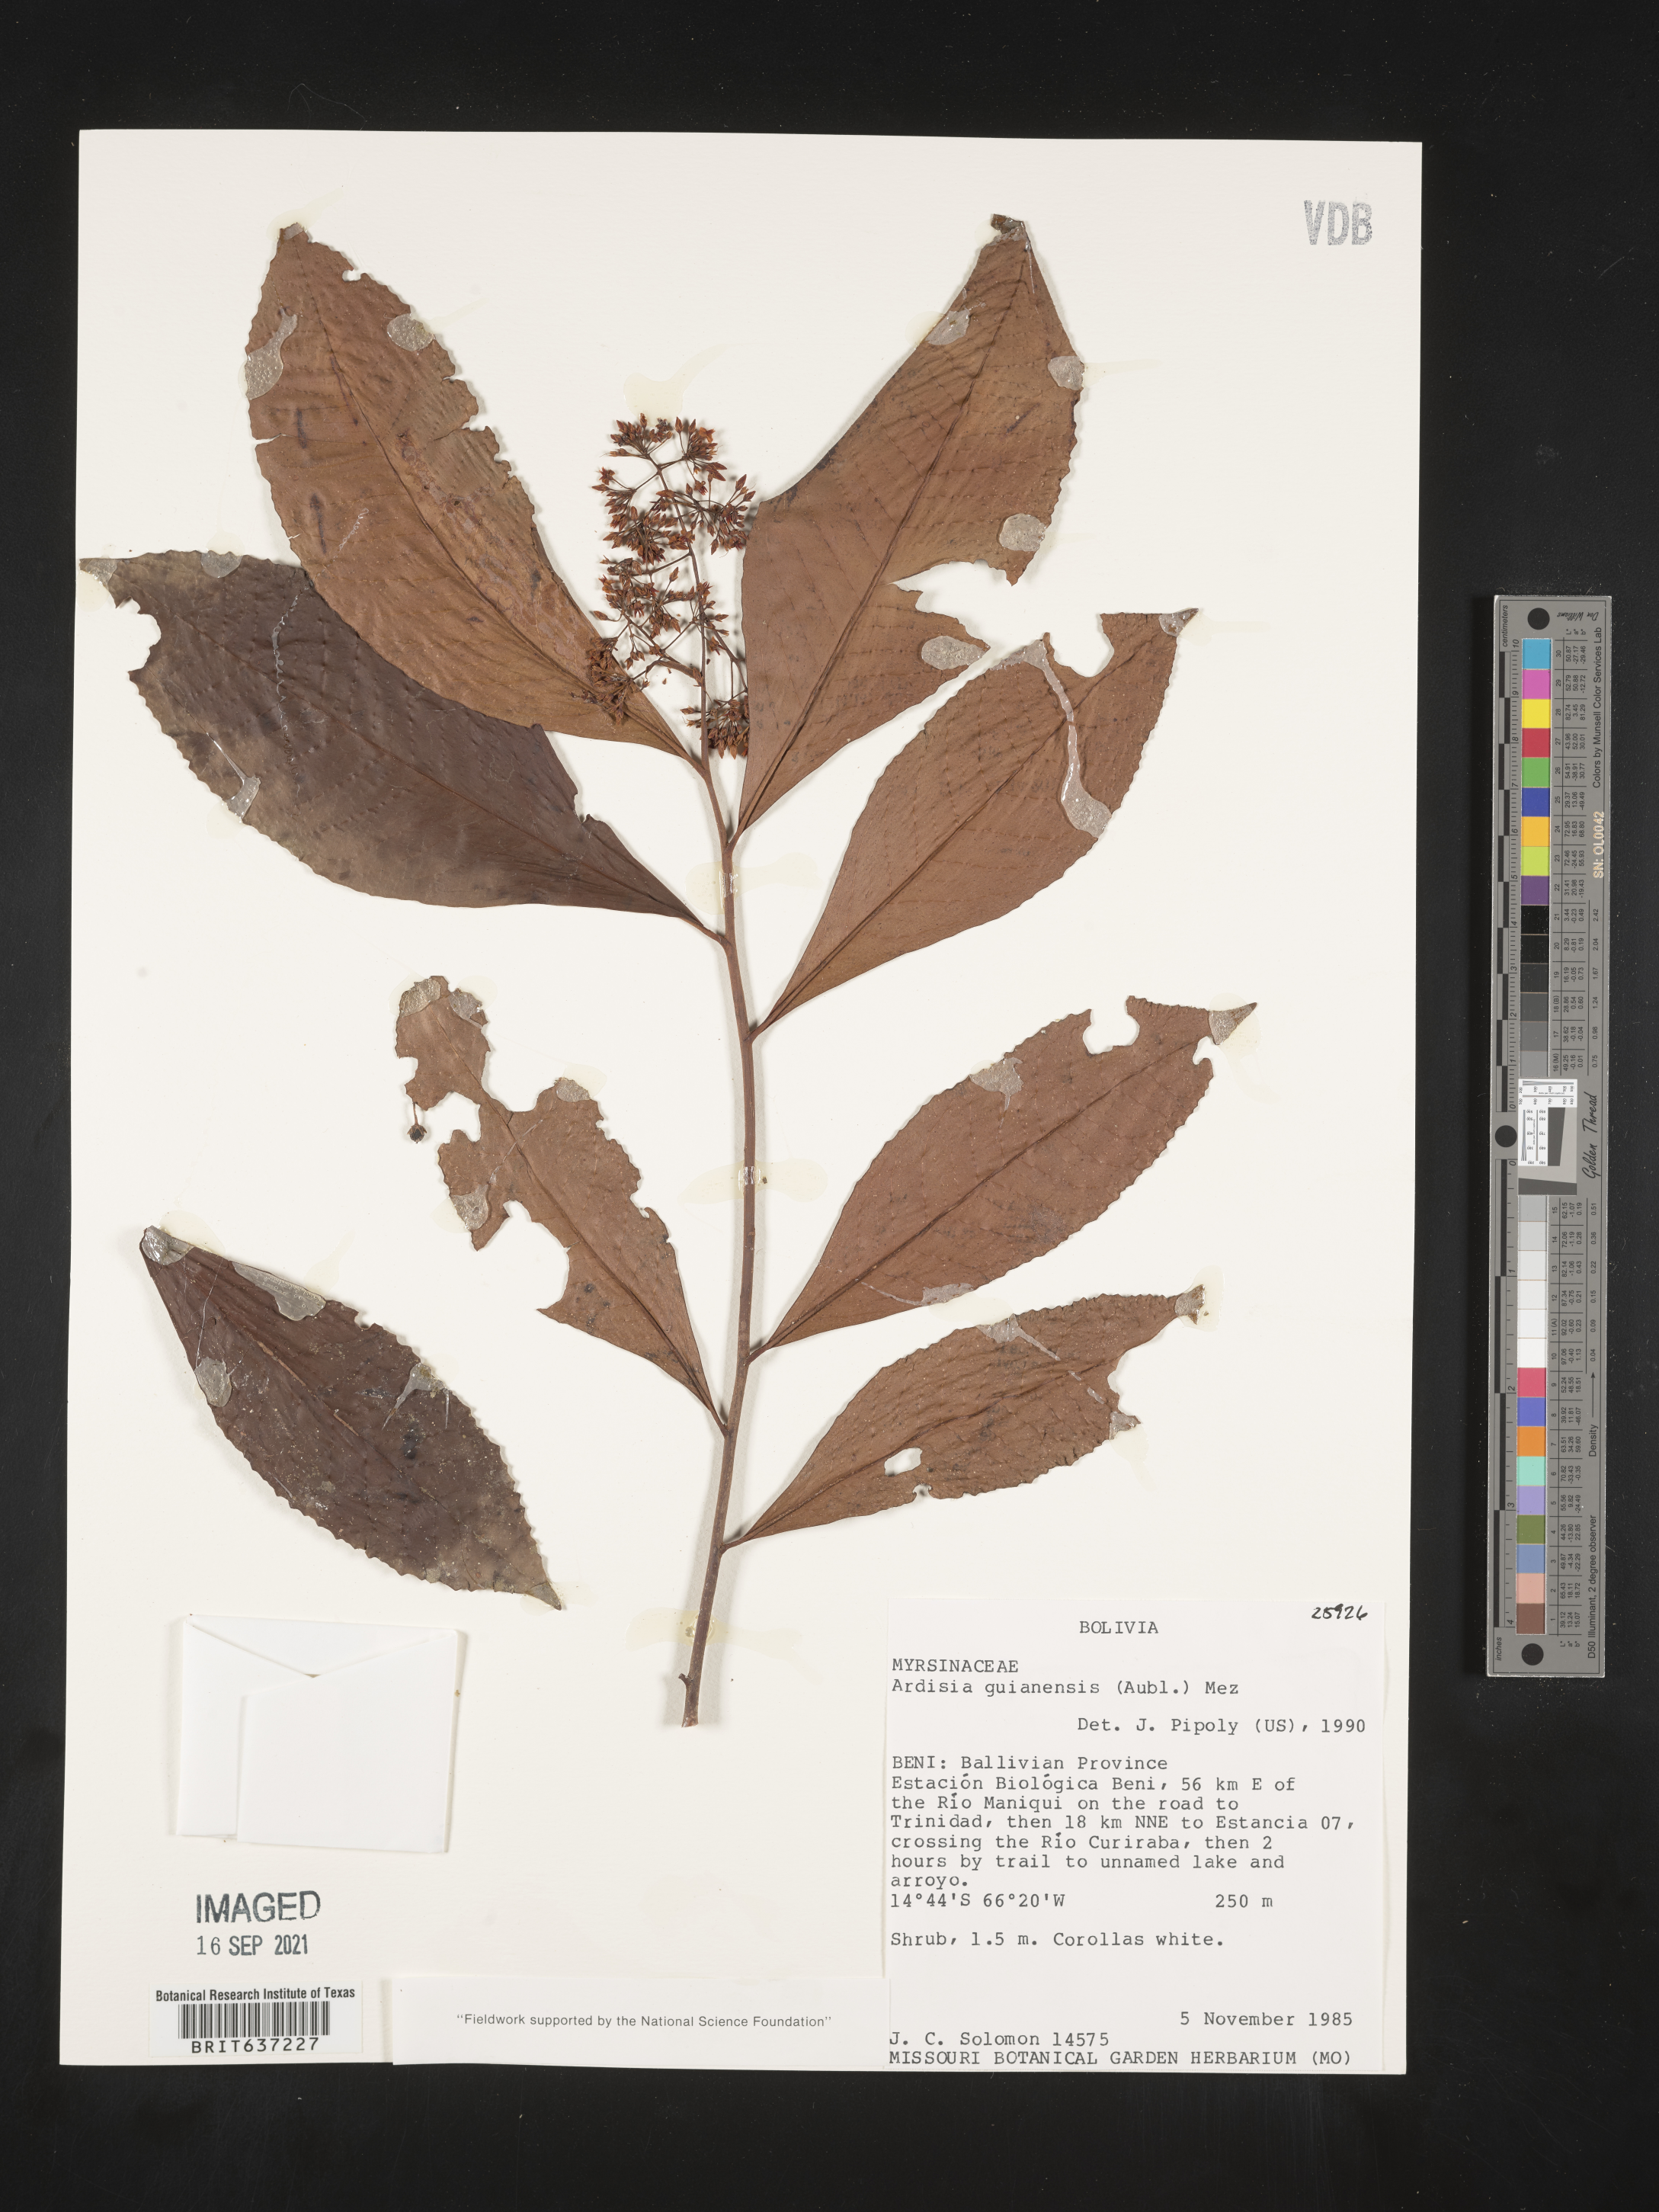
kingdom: Plantae
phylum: Tracheophyta
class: Magnoliopsida
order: Ericales
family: Primulaceae
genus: Ardisia
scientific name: Ardisia
